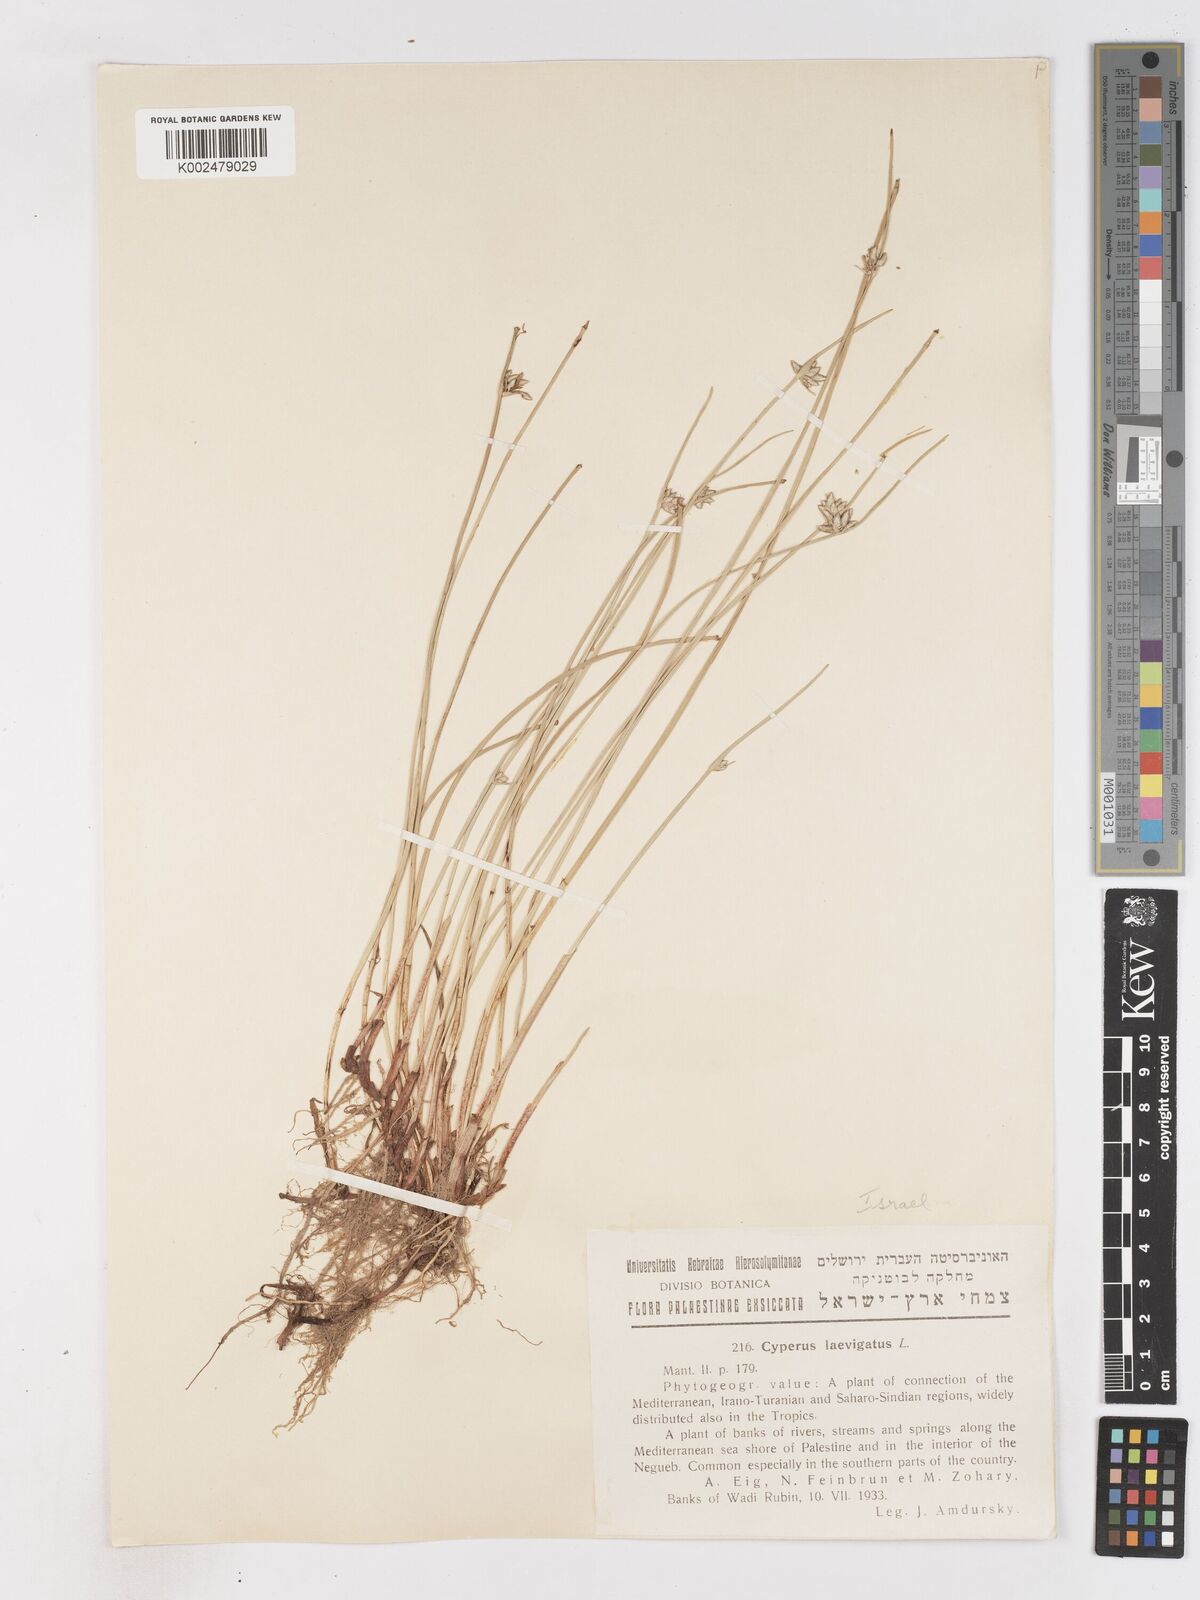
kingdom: Plantae
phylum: Tracheophyta
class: Liliopsida
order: Poales
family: Cyperaceae
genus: Cyperus
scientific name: Cyperus laevigatus
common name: Smooth flat sedge
